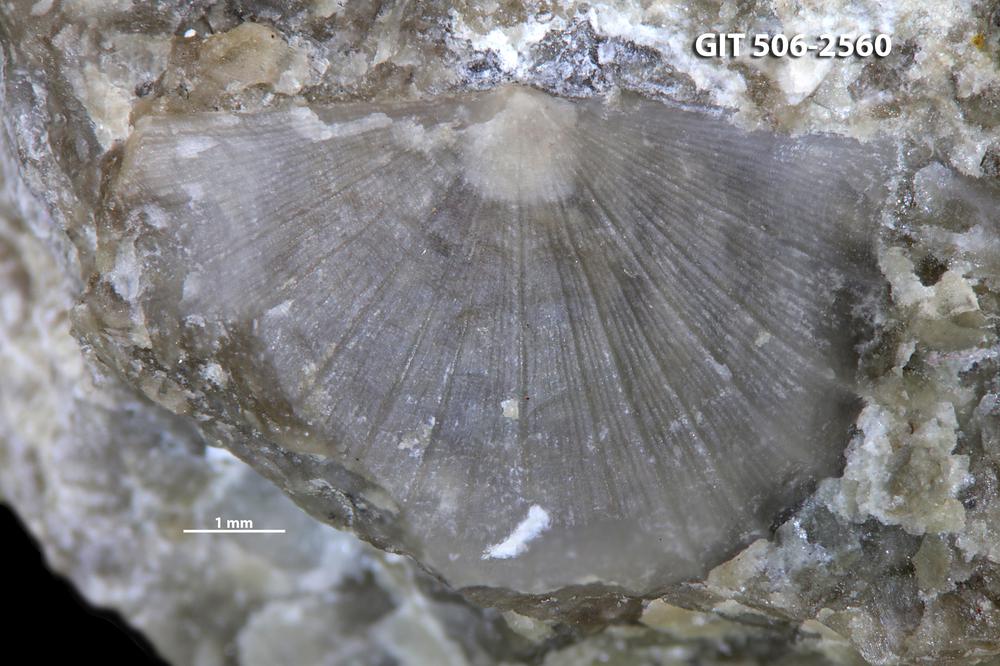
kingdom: Animalia
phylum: Brachiopoda
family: Amphistrophiidae
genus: Amphistrophia
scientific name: Amphistrophia
